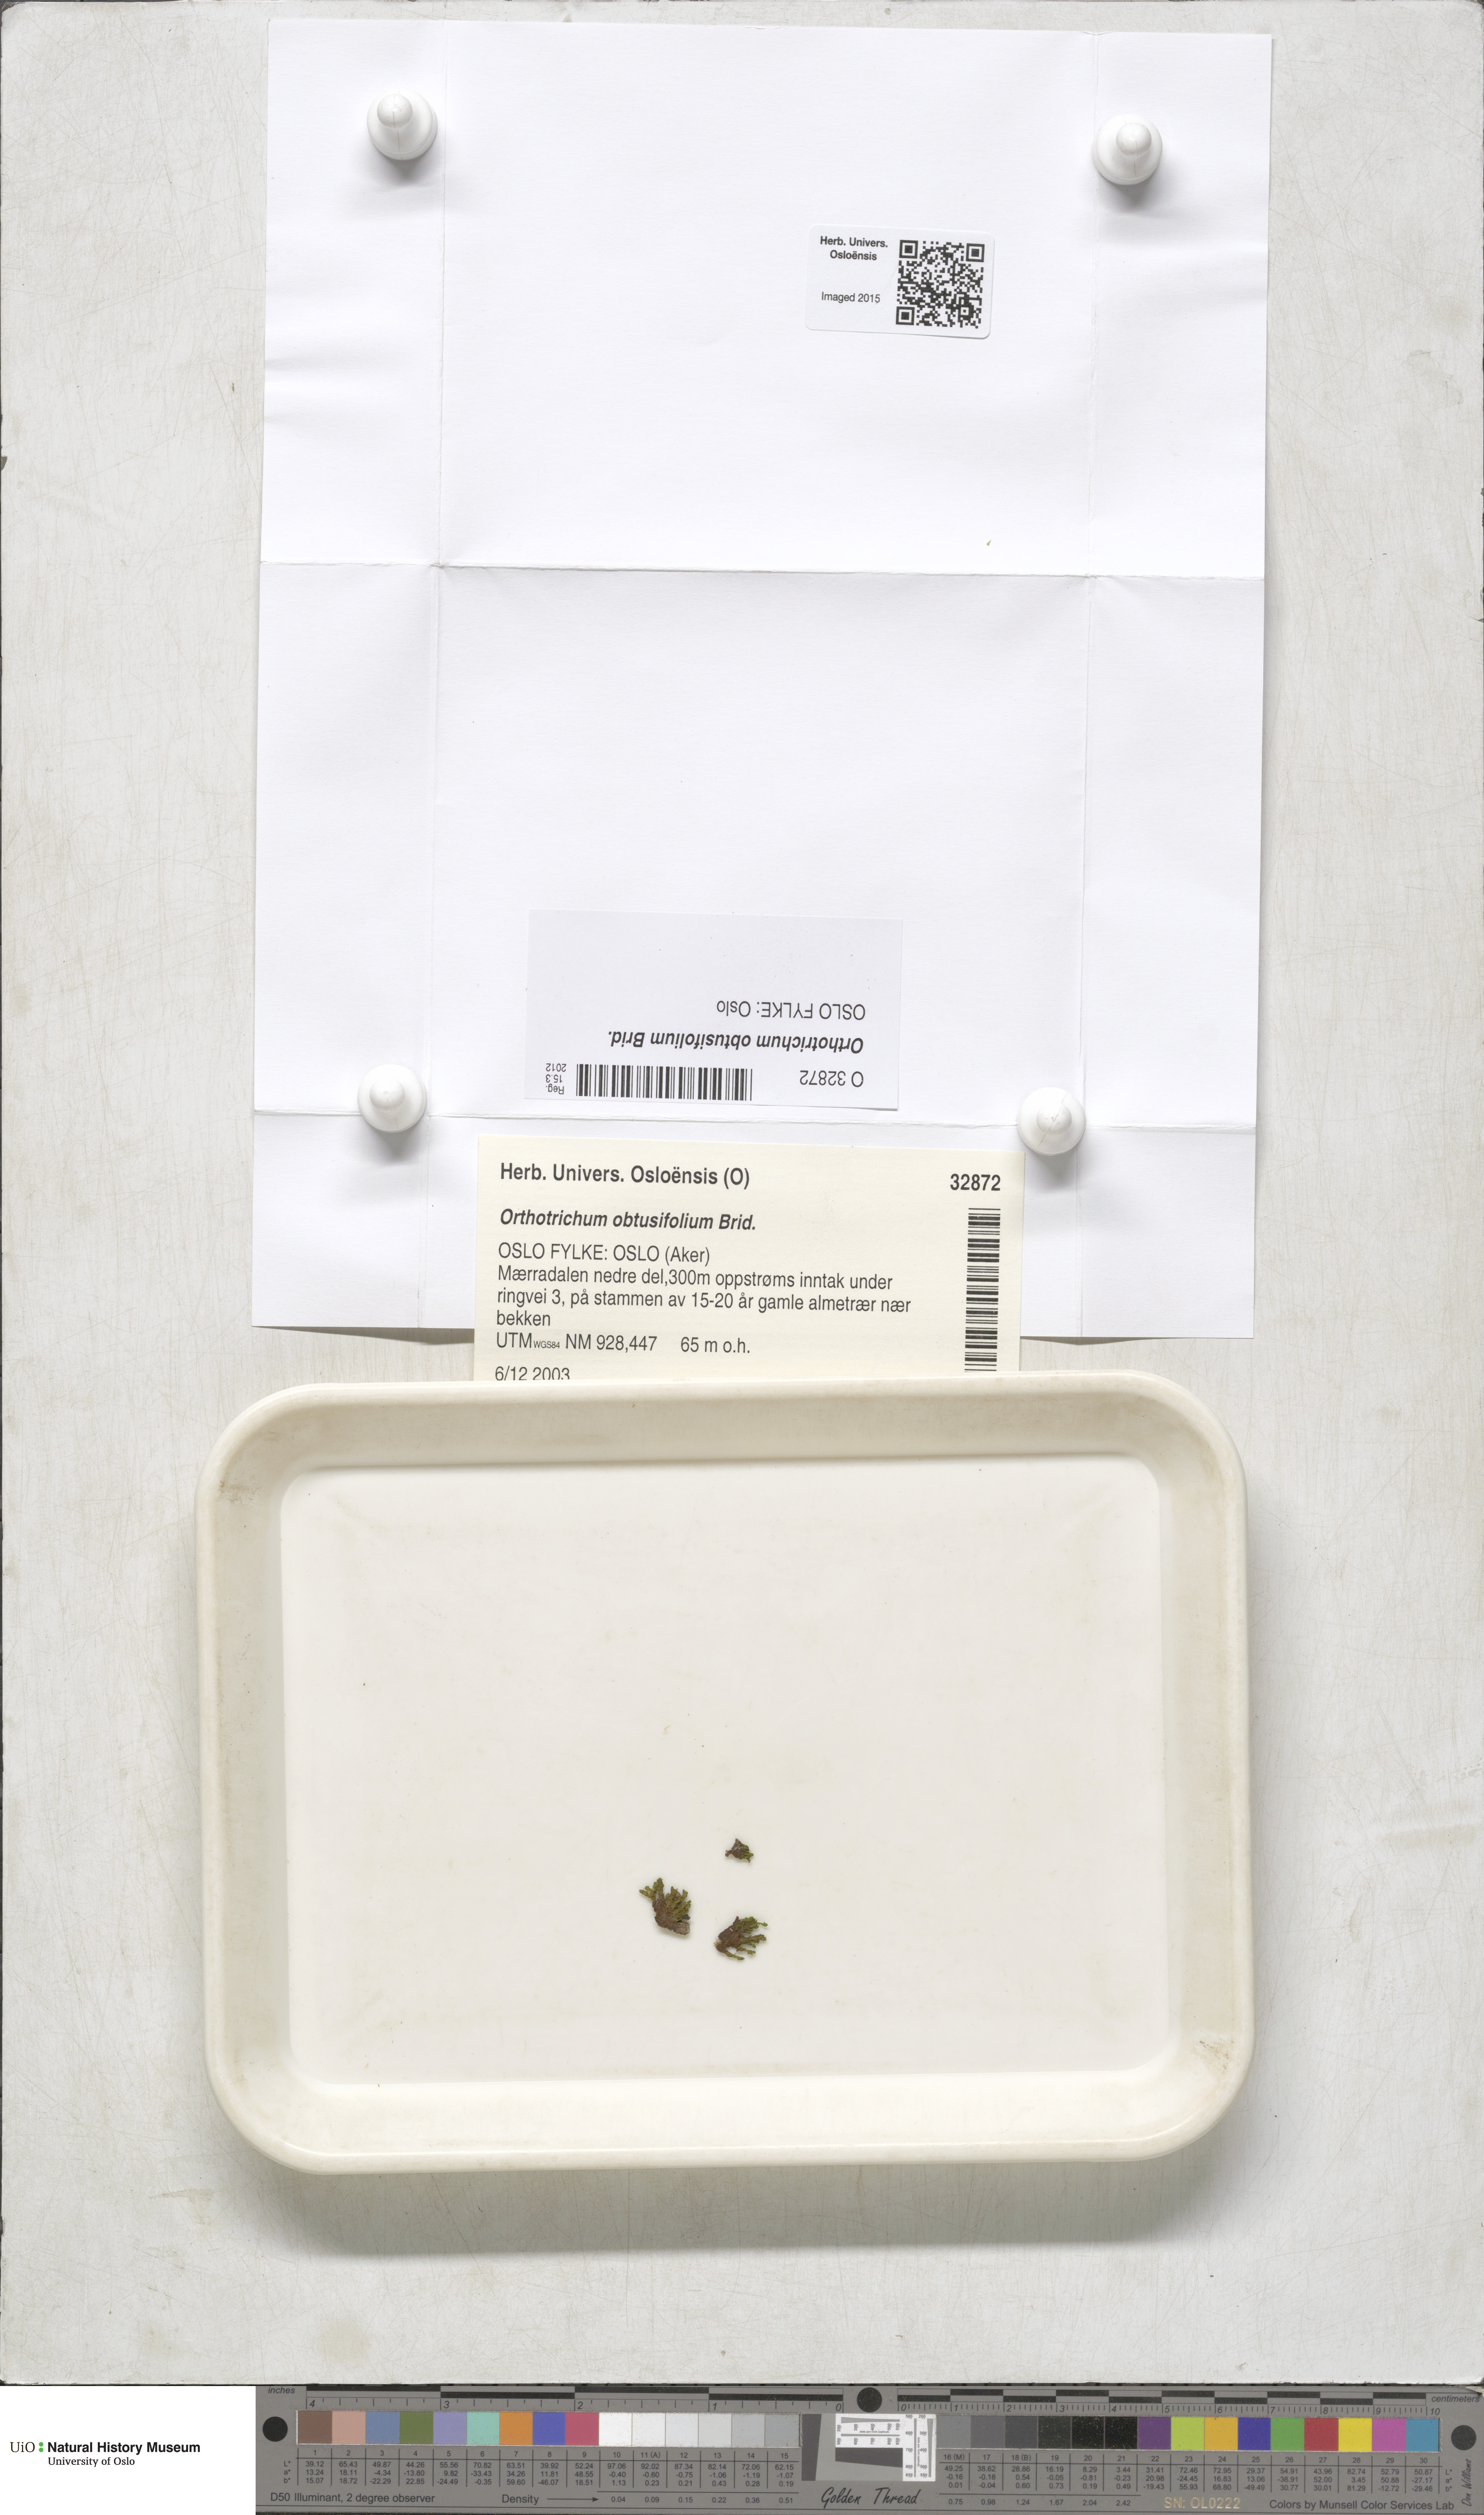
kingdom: Plantae
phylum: Bryophyta
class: Bryopsida
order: Orthotrichales
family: Orthotrichaceae
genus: Nyholmiella
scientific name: Nyholmiella obtusifolia
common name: Blunt-leaved bristle-moss
